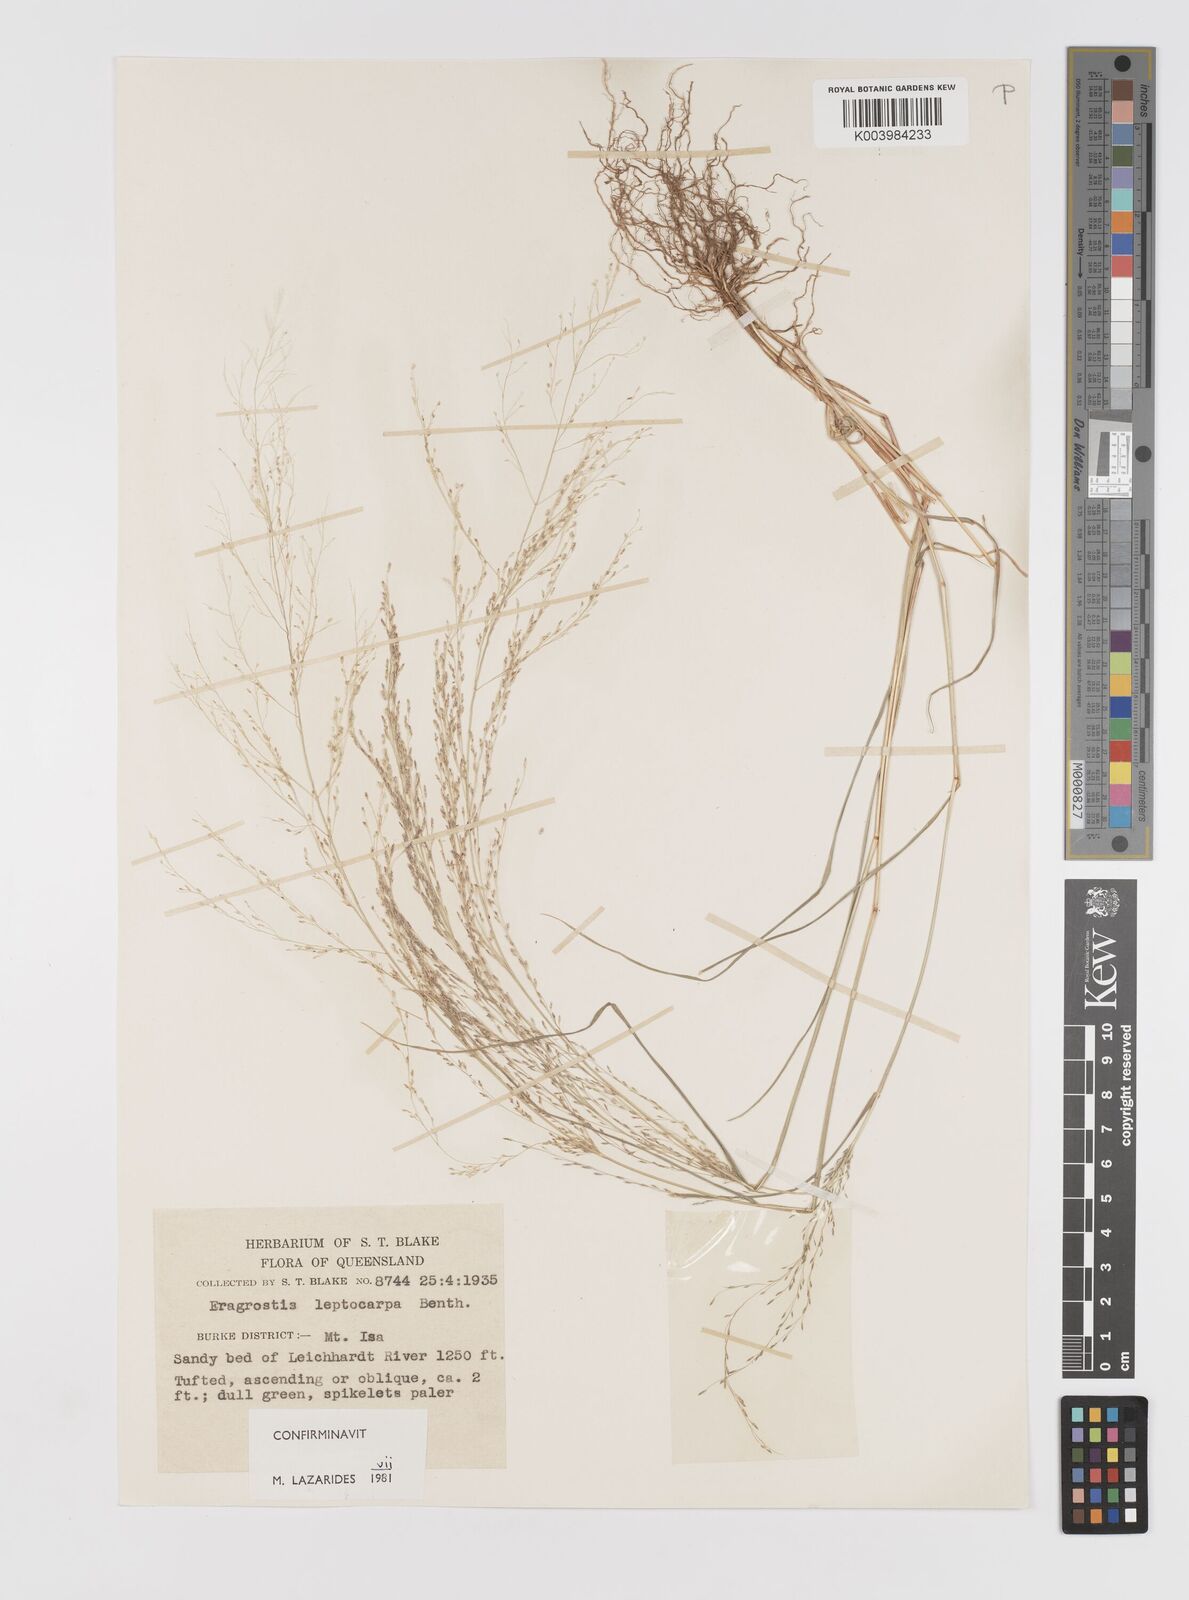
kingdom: Plantae
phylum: Tracheophyta
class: Liliopsida
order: Poales
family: Poaceae
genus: Eragrostis
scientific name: Eragrostis leptocarpa
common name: Drooping love grass
